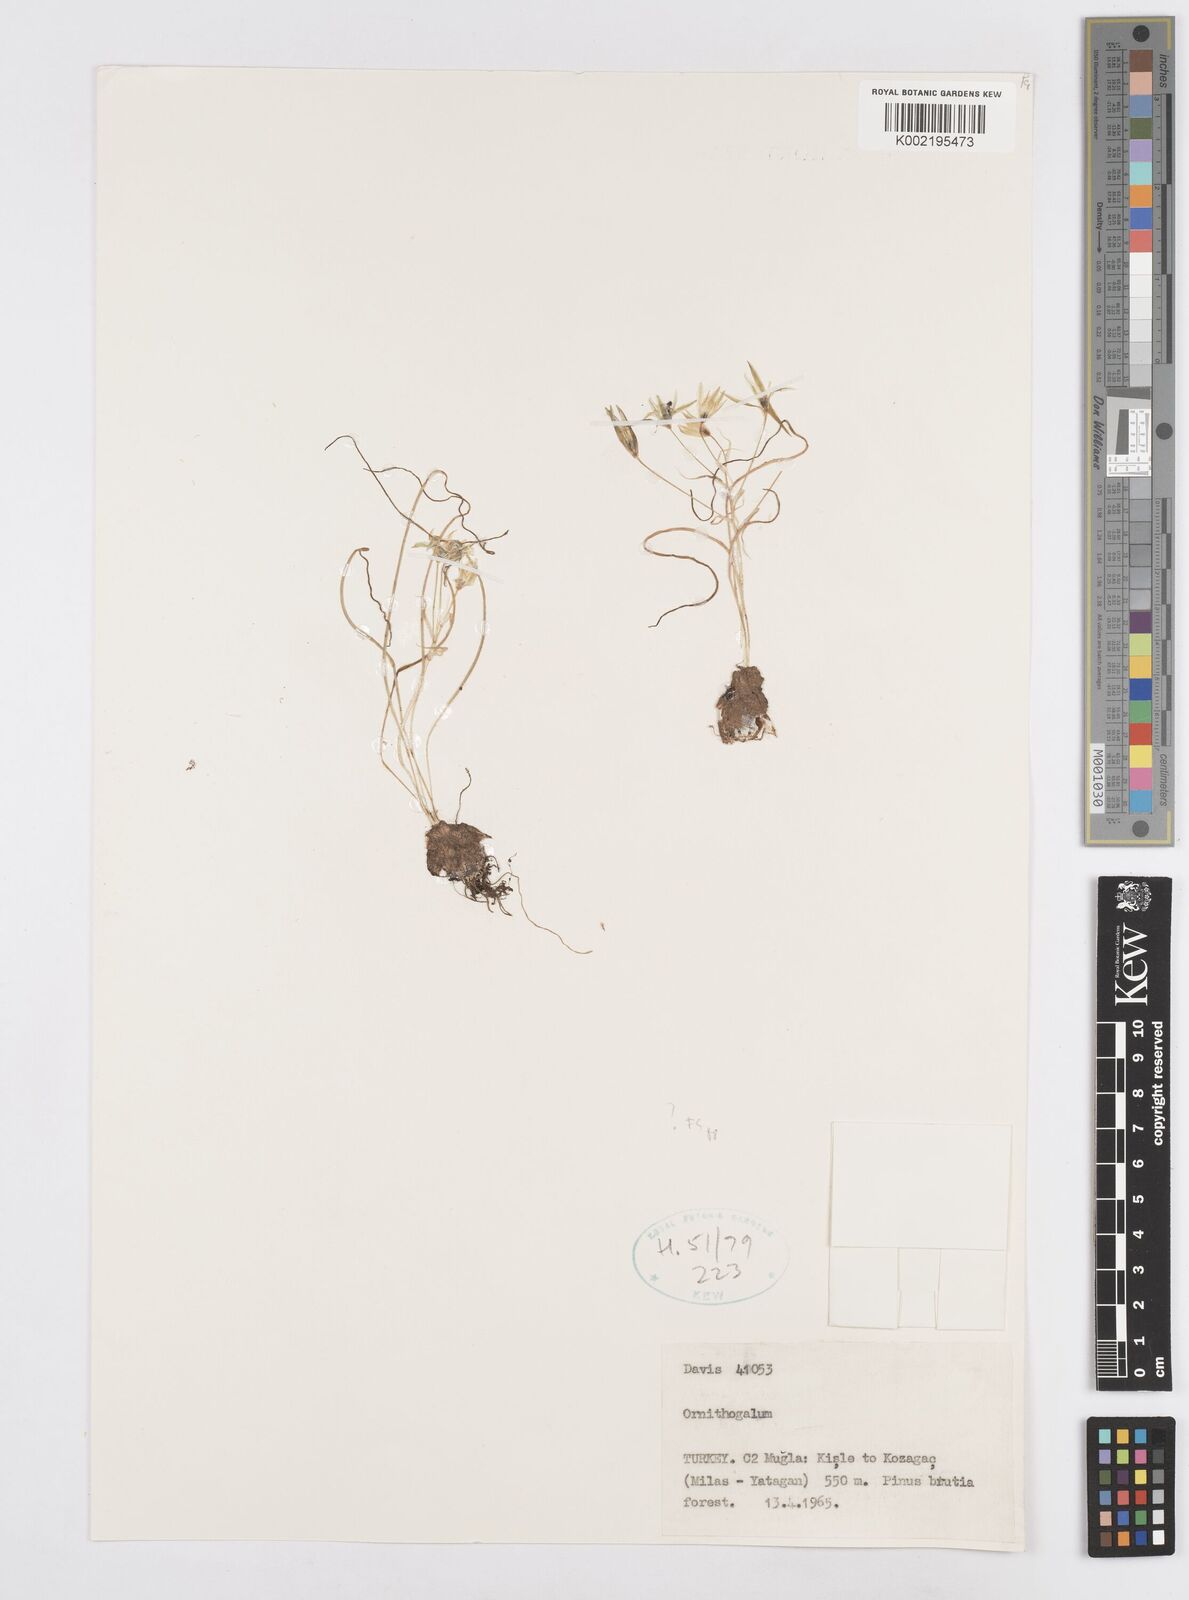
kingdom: Plantae
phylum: Tracheophyta
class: Liliopsida
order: Asparagales
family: Asparagaceae
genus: Ornithogalum
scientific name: Ornithogalum
